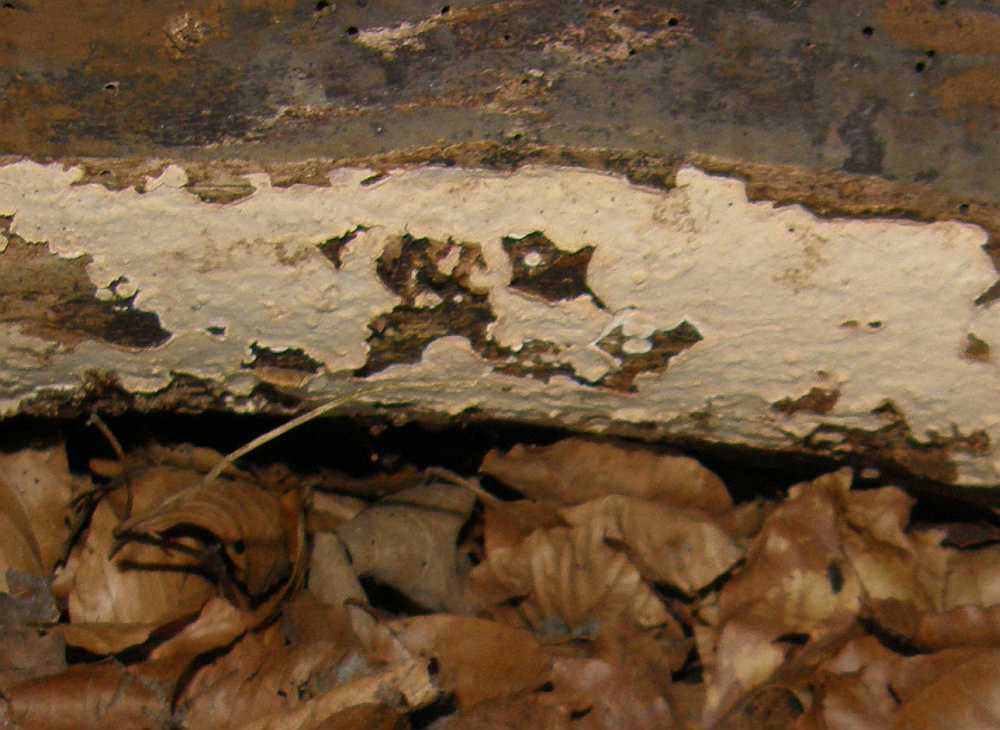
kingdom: Fungi
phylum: Basidiomycota
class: Agaricomycetes
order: Russulales
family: Stereaceae
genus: Stereum
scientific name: Stereum rugosum
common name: rynket lædersvamp
